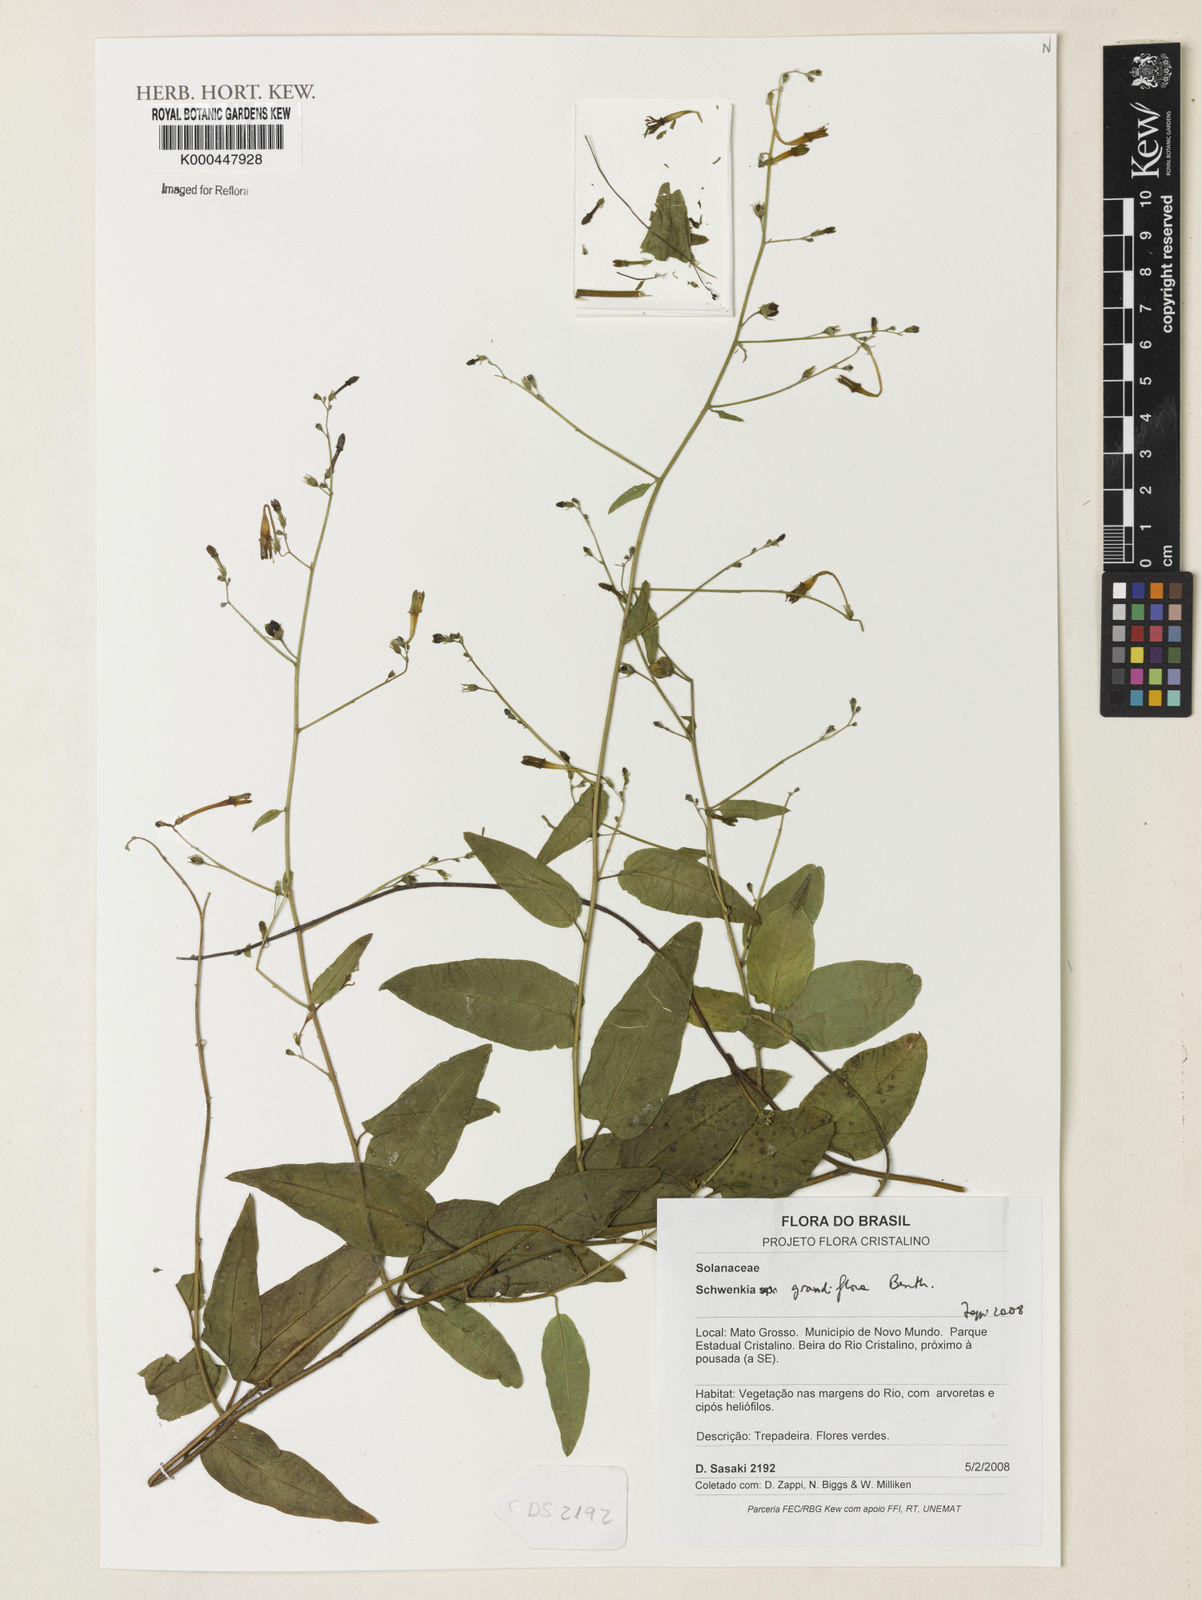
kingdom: Plantae
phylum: Tracheophyta
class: Magnoliopsida
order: Solanales
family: Solanaceae
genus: Schwenckia
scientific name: Schwenckia grandiflora
